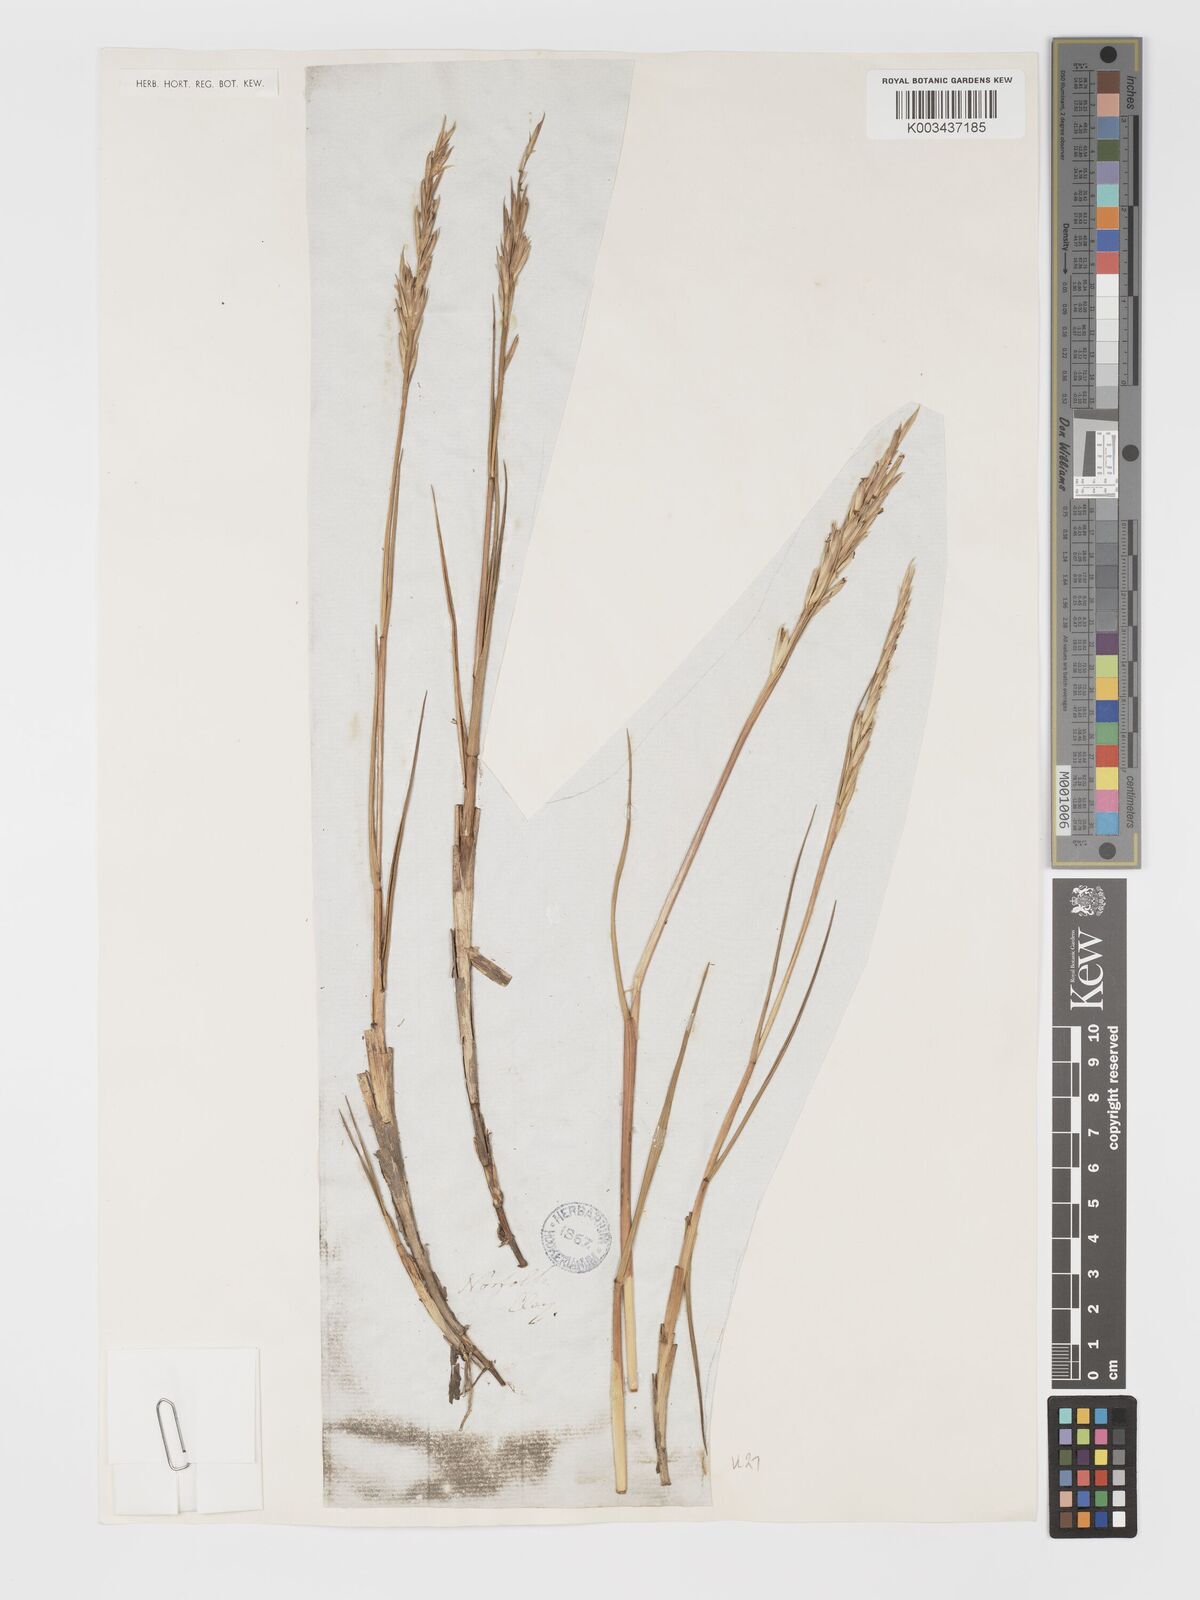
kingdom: Plantae
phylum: Tracheophyta
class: Liliopsida
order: Poales
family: Poaceae
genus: Sporobolus
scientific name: Sporobolus maritimus
